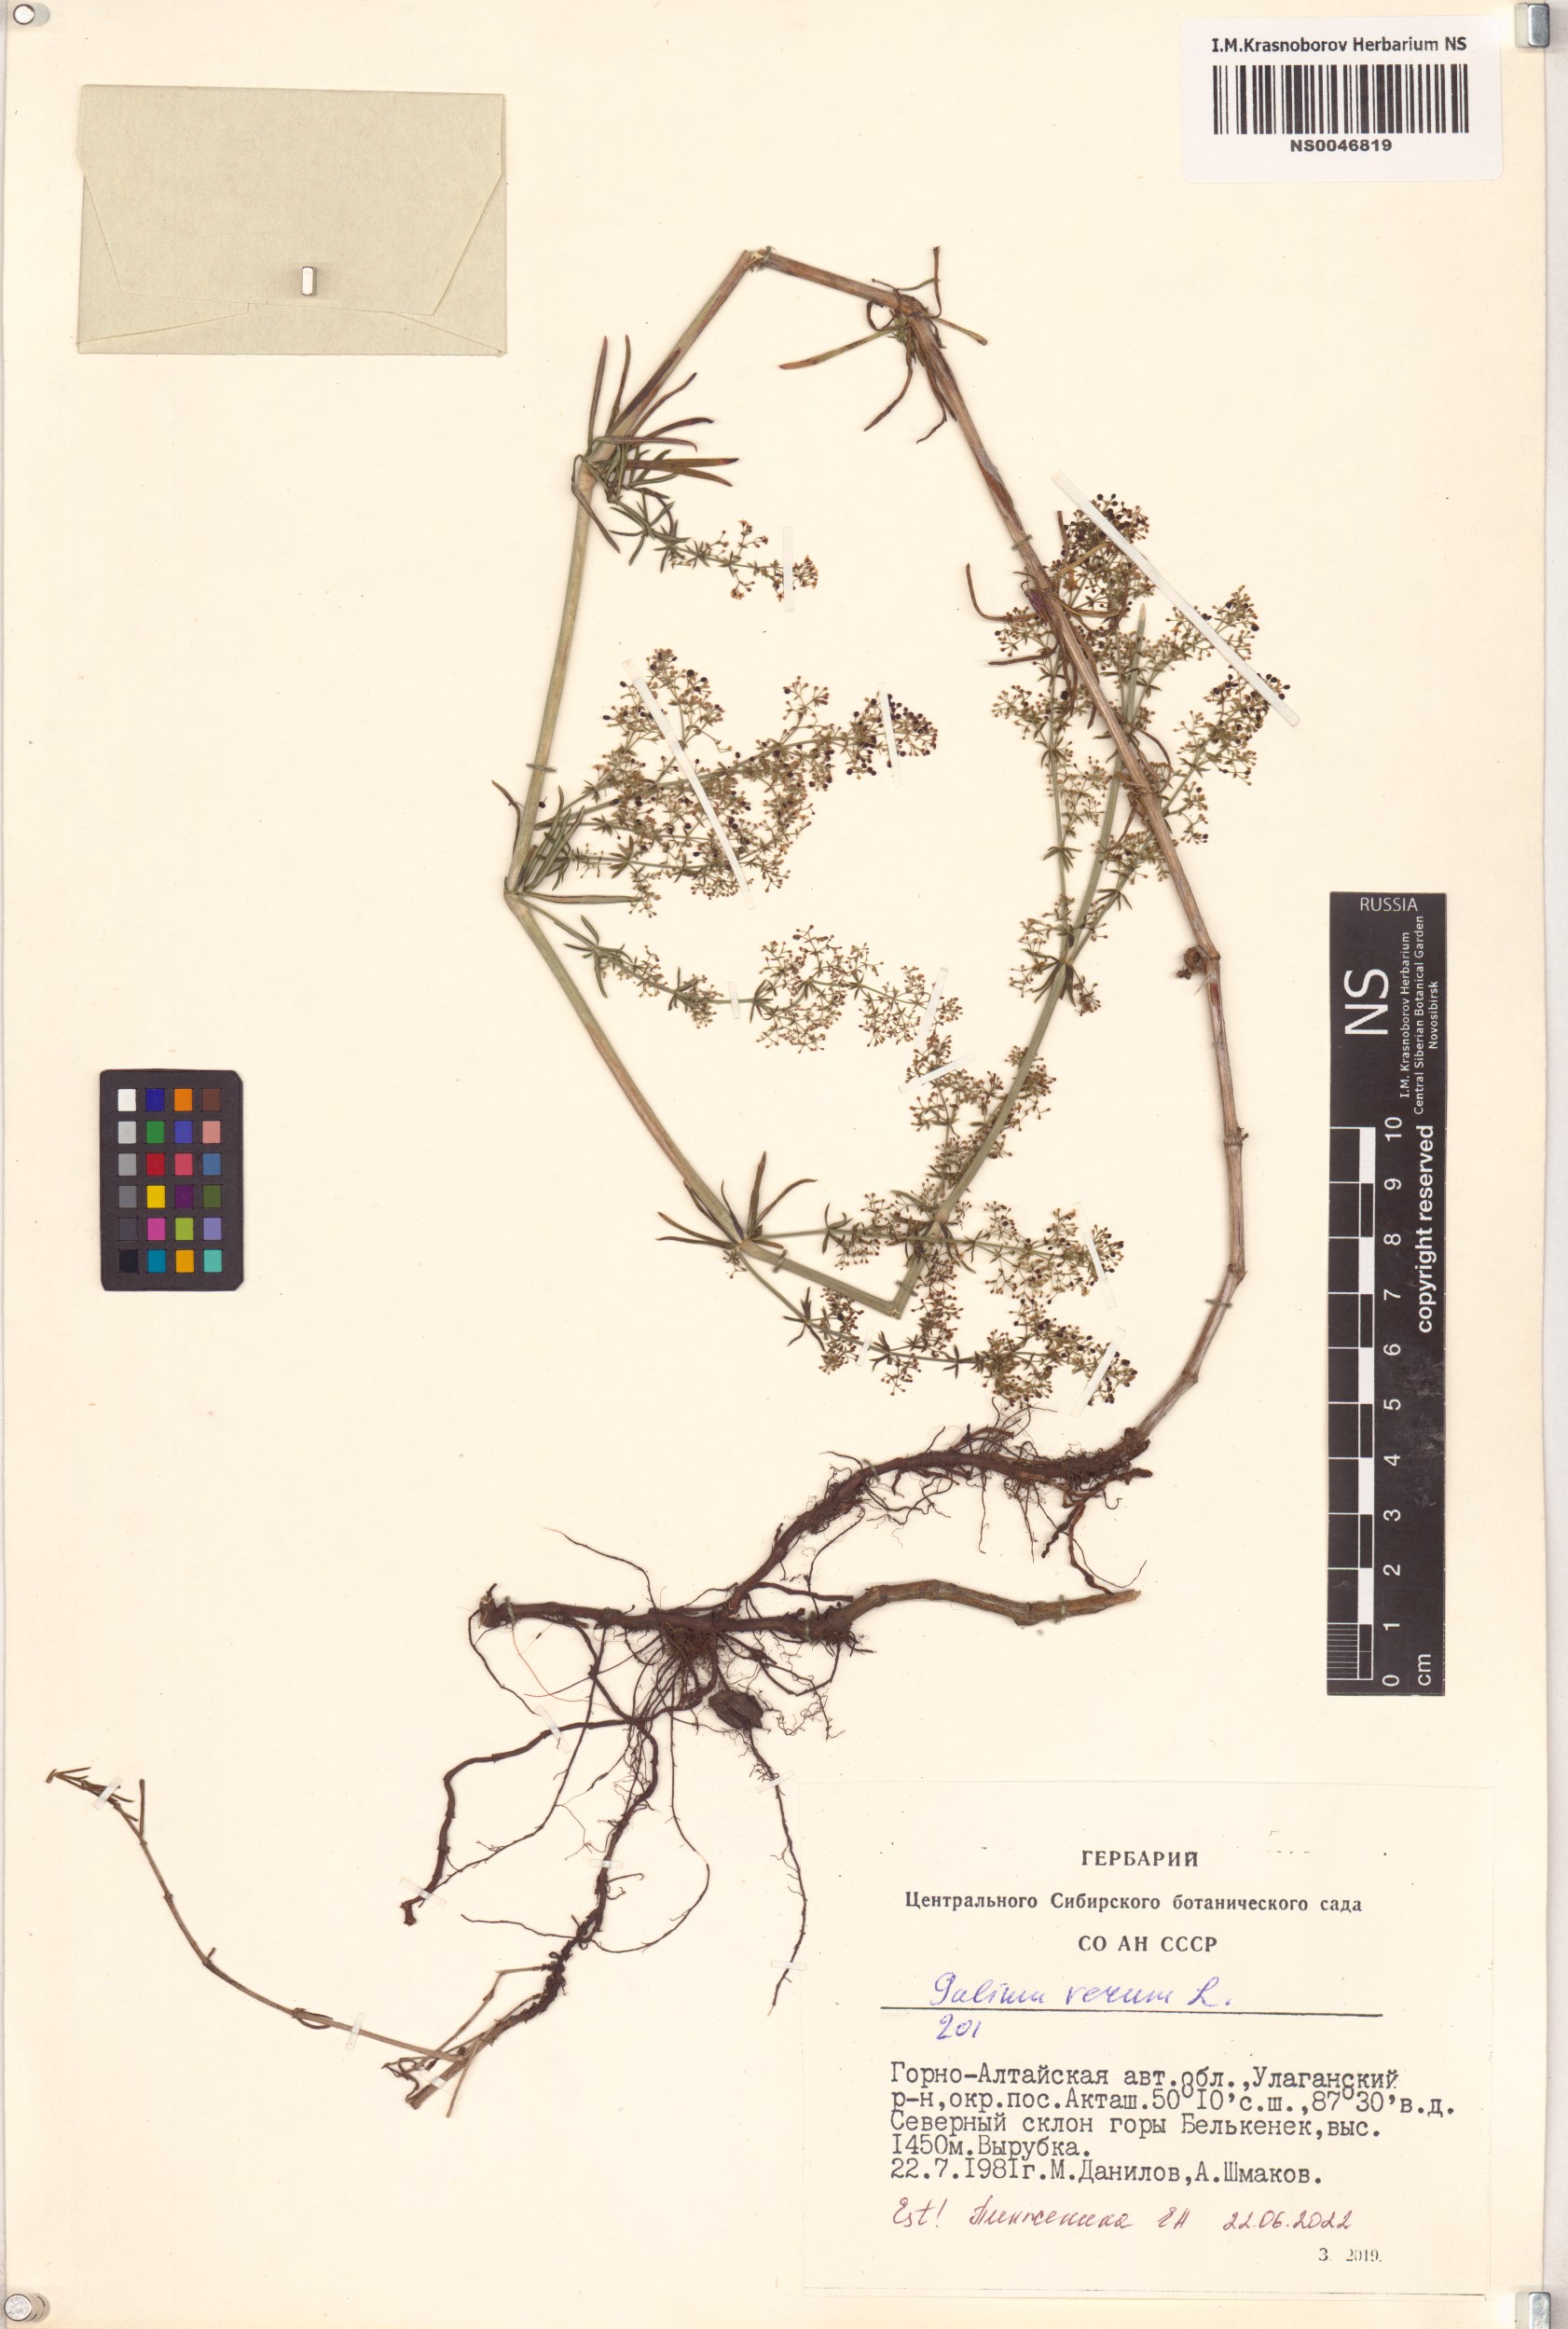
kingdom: Plantae
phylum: Tracheophyta
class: Magnoliopsida
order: Gentianales
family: Rubiaceae
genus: Galium
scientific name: Galium verum
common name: Lady's bedstraw
